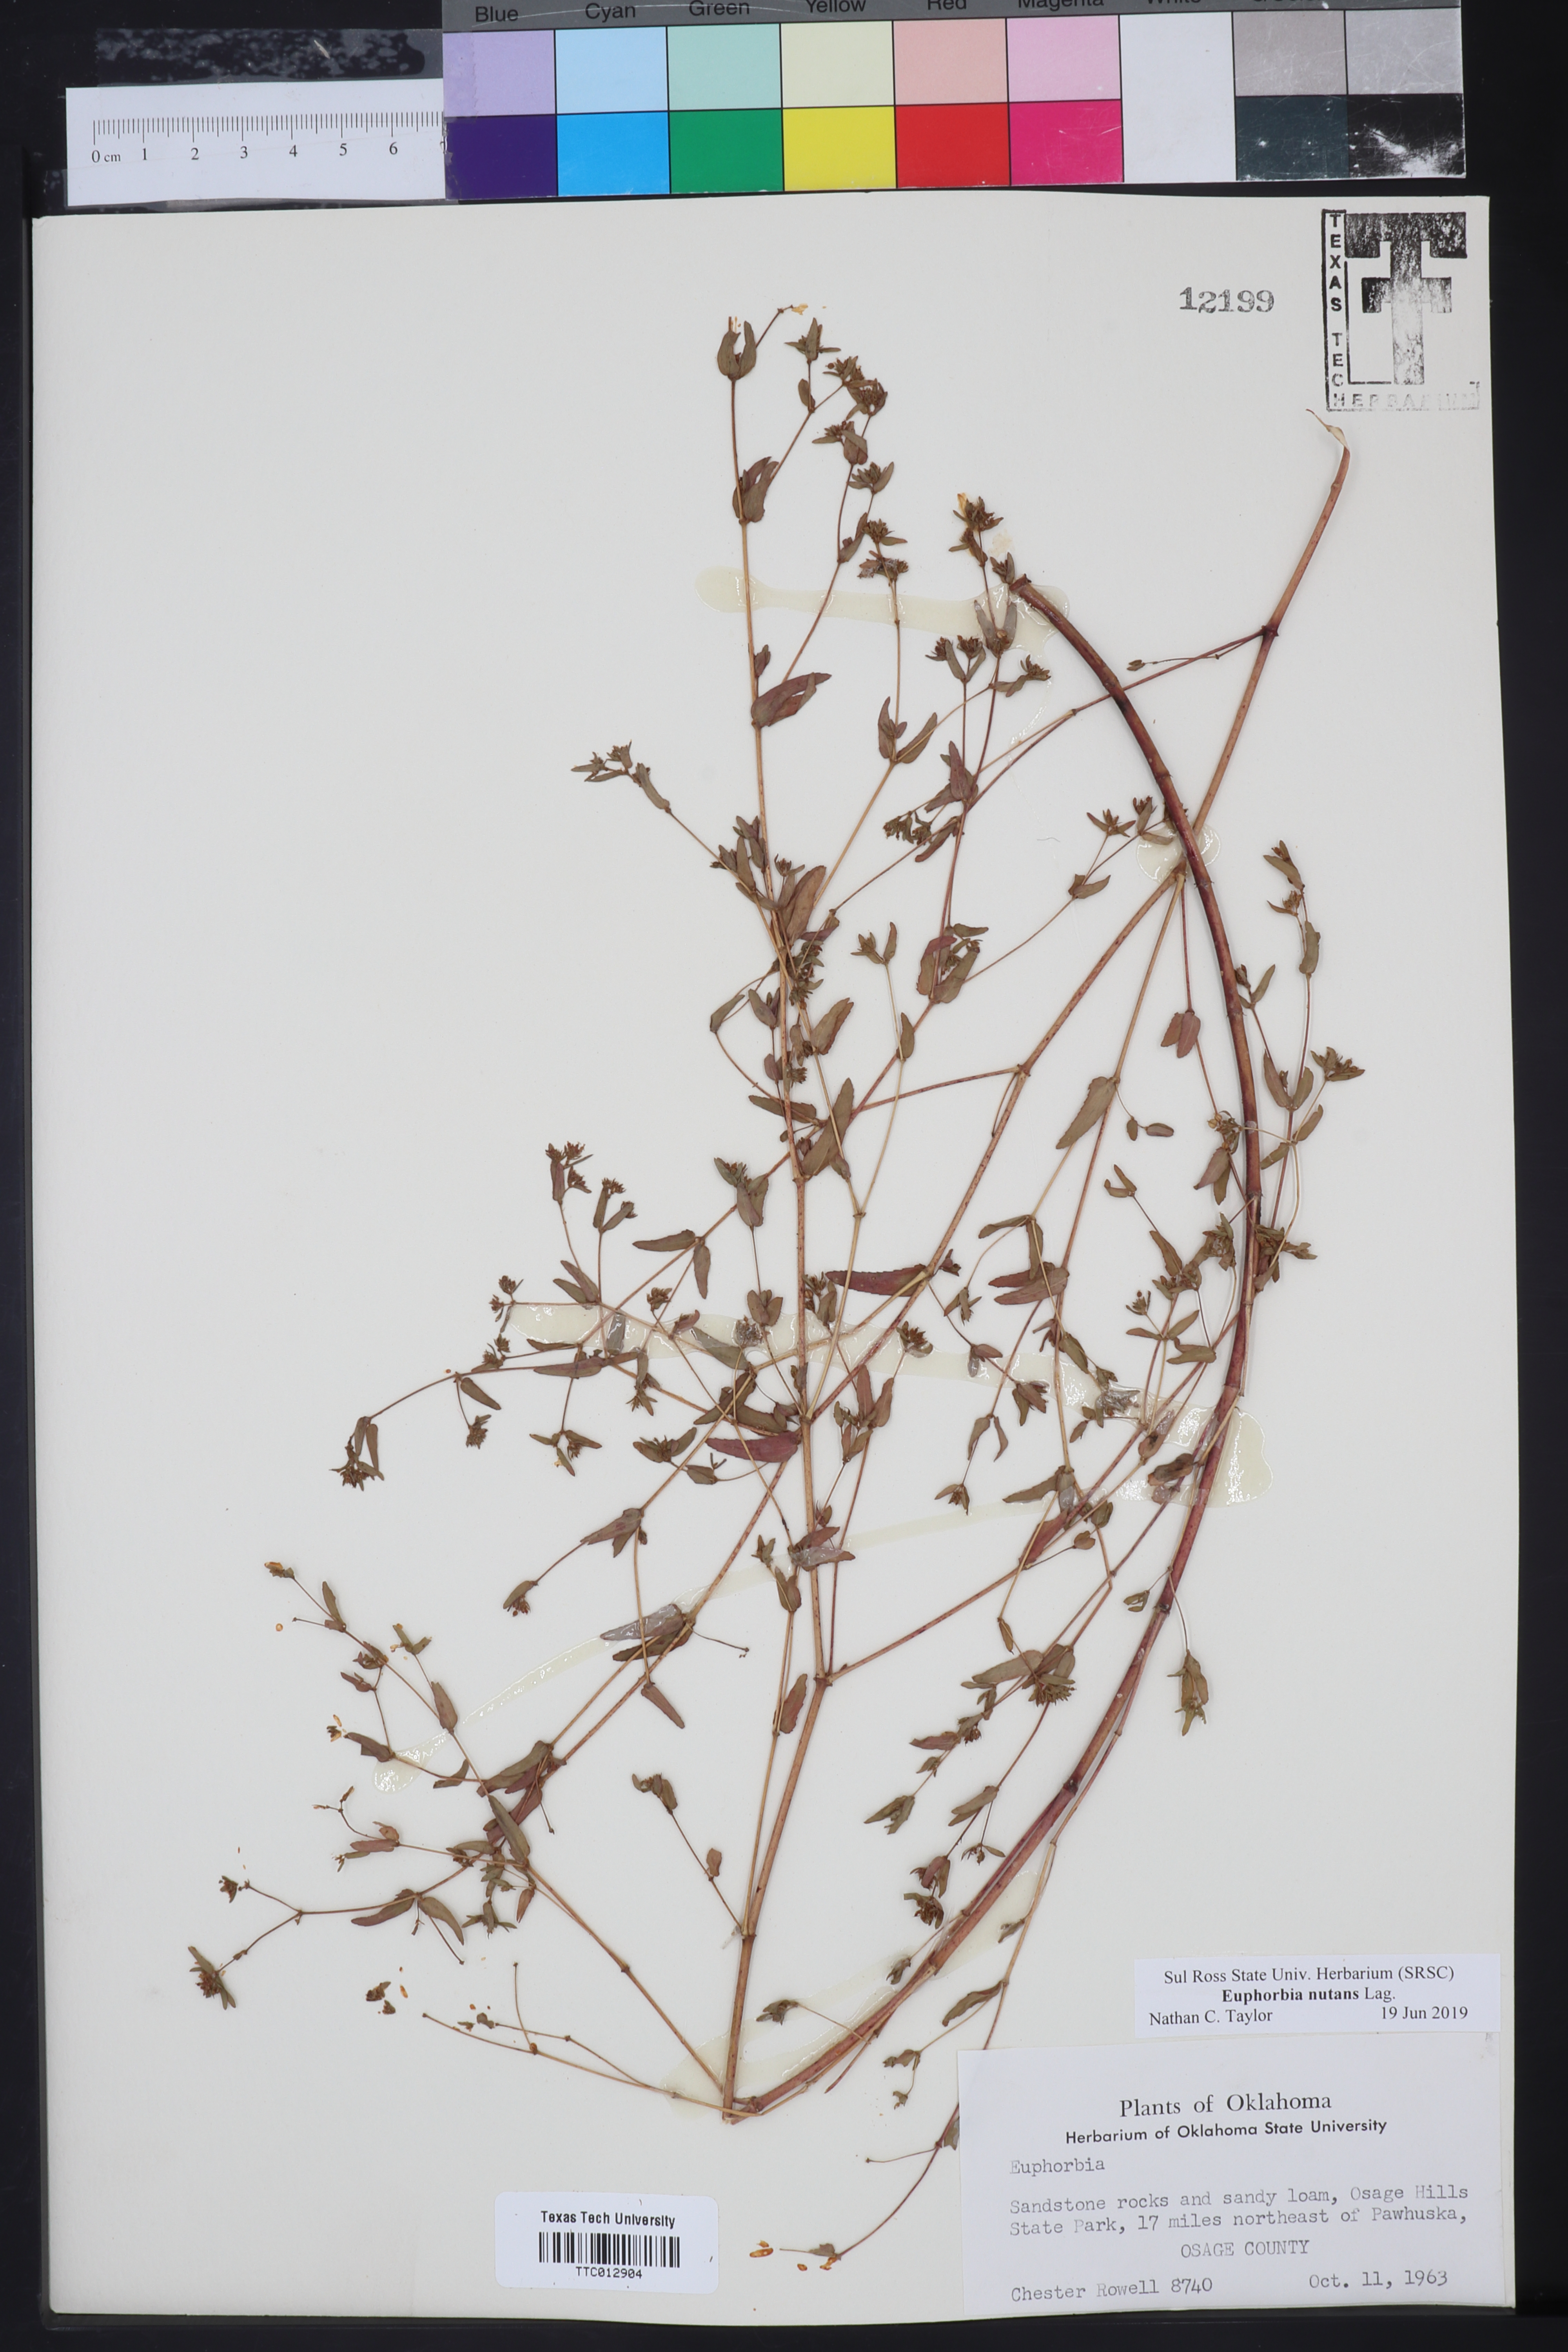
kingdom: Plantae
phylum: Tracheophyta
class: Magnoliopsida
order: Malpighiales
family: Euphorbiaceae
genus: Euphorbia
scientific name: Euphorbia nutans
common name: Eyebane
